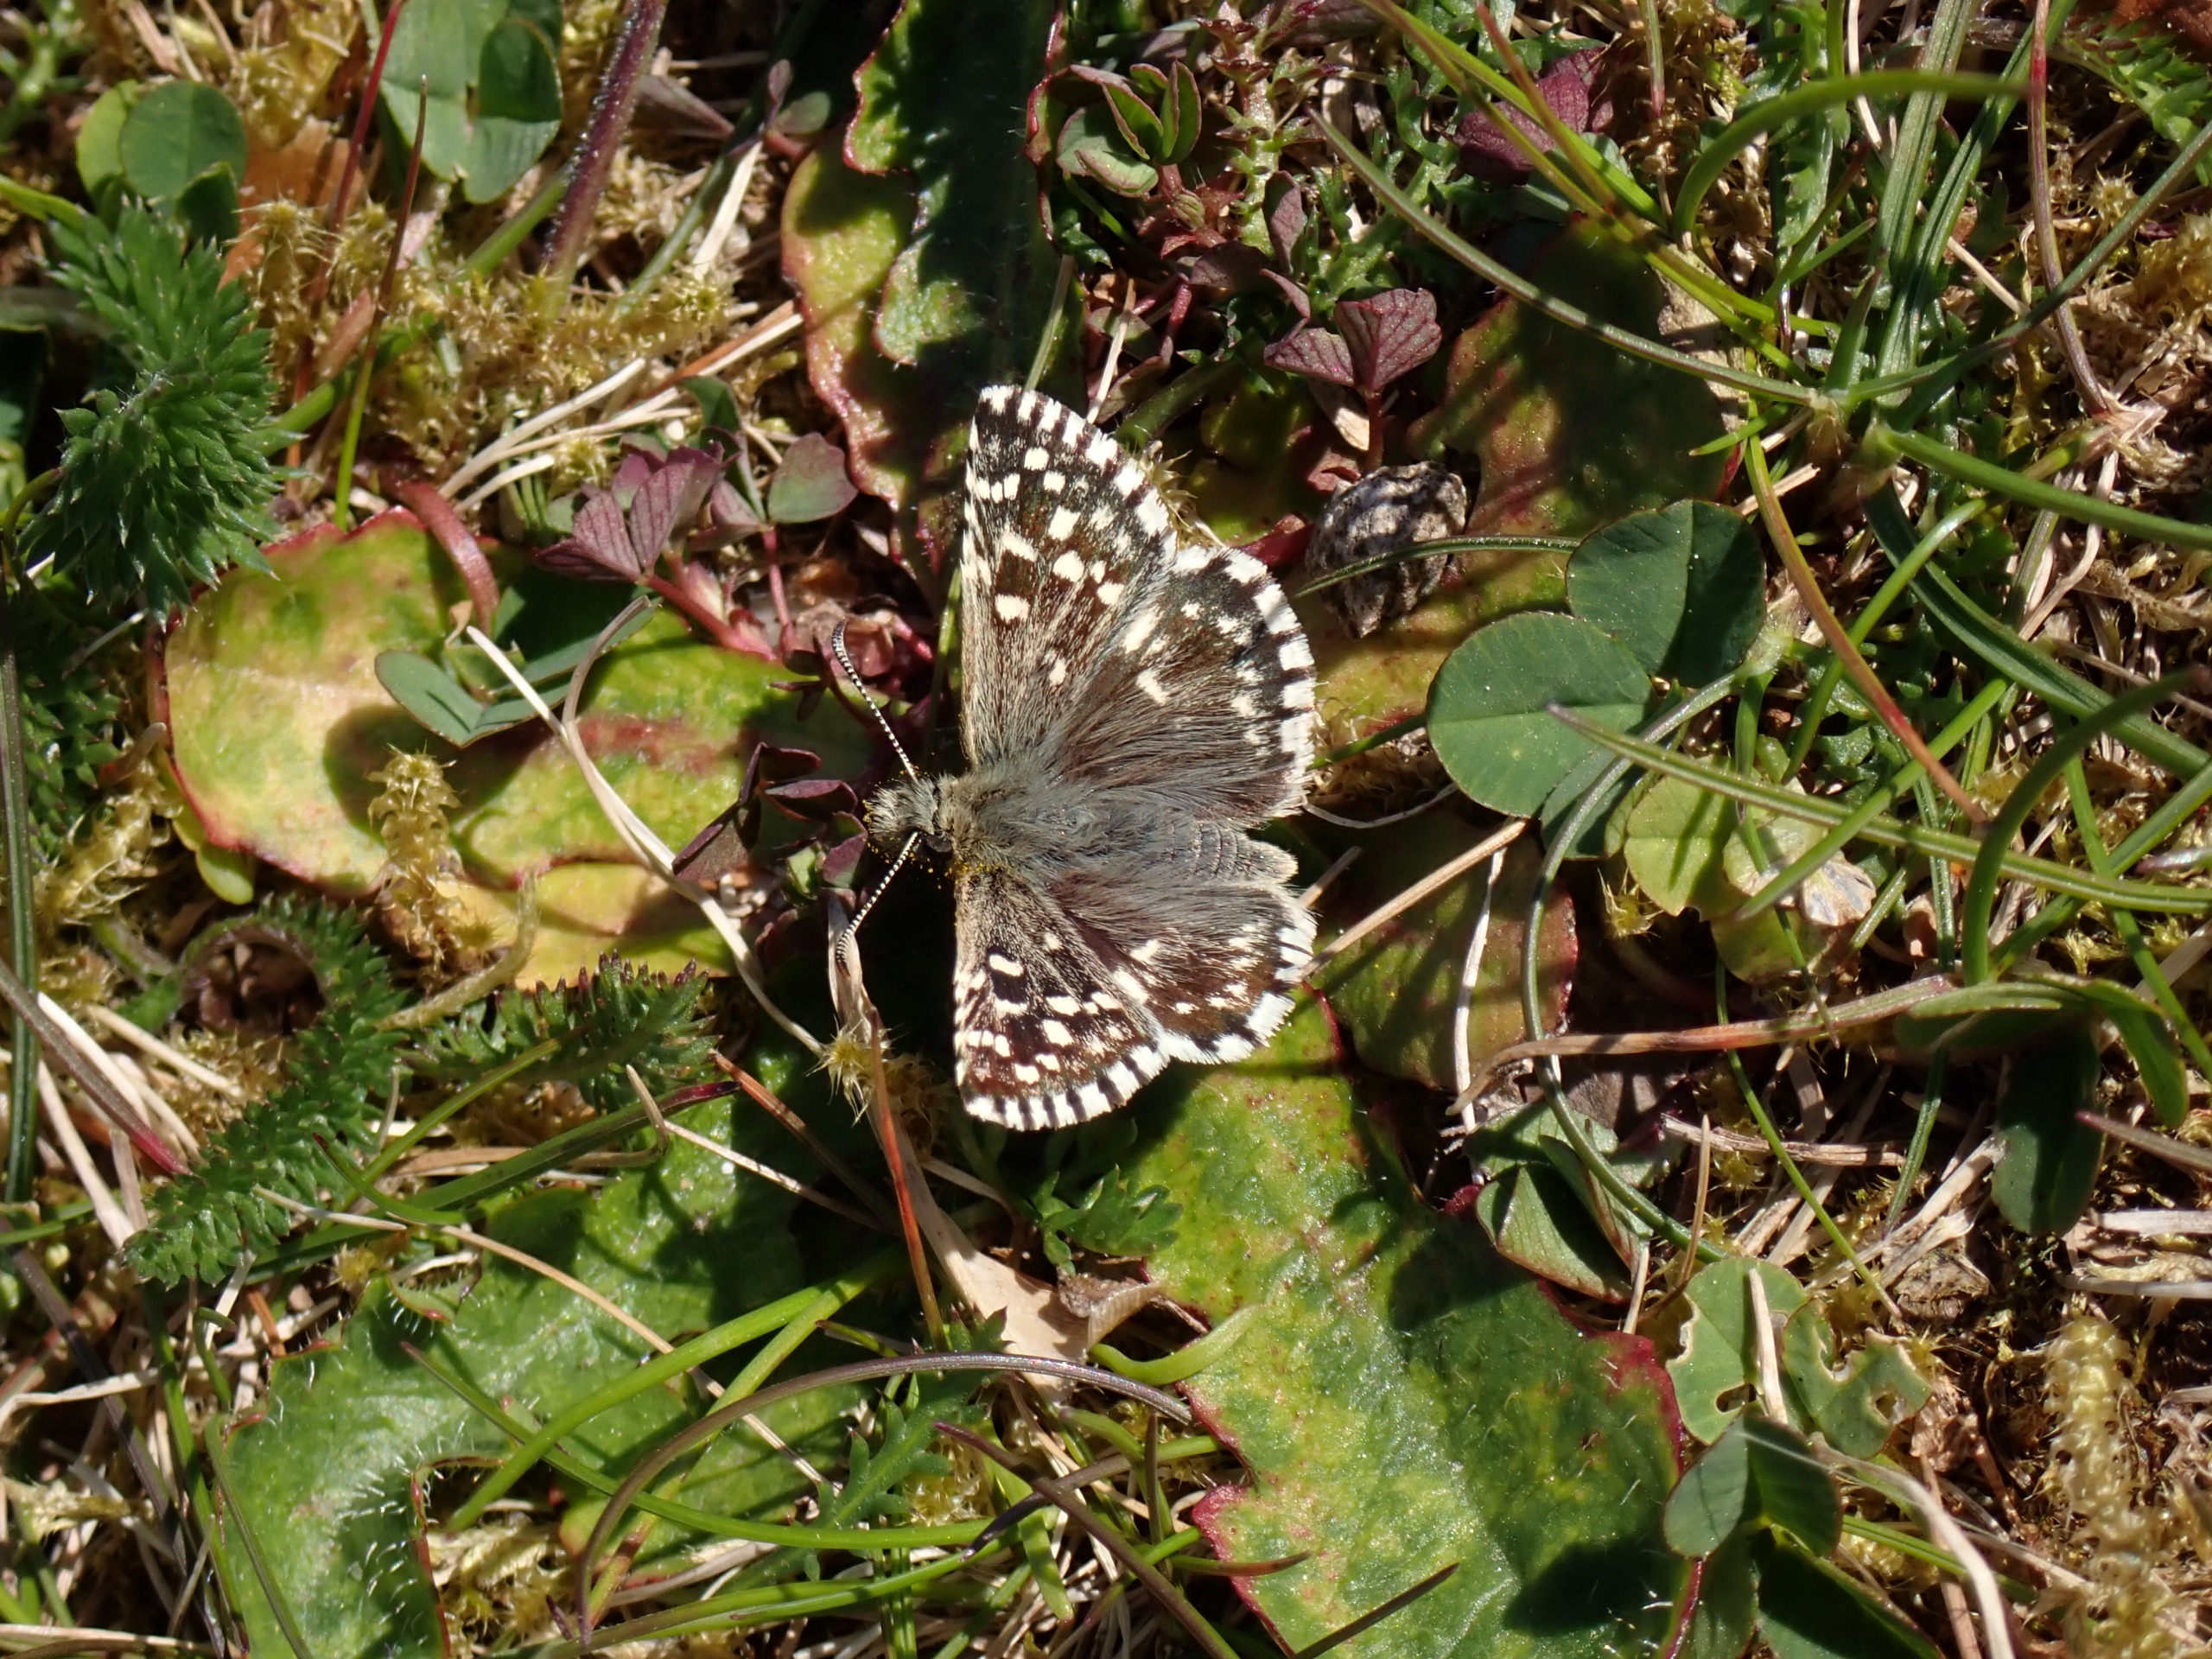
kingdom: Animalia
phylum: Arthropoda
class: Insecta
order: Lepidoptera
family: Hesperiidae
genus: Pyrgus
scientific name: Pyrgus malvae
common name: Spættet bredpande
